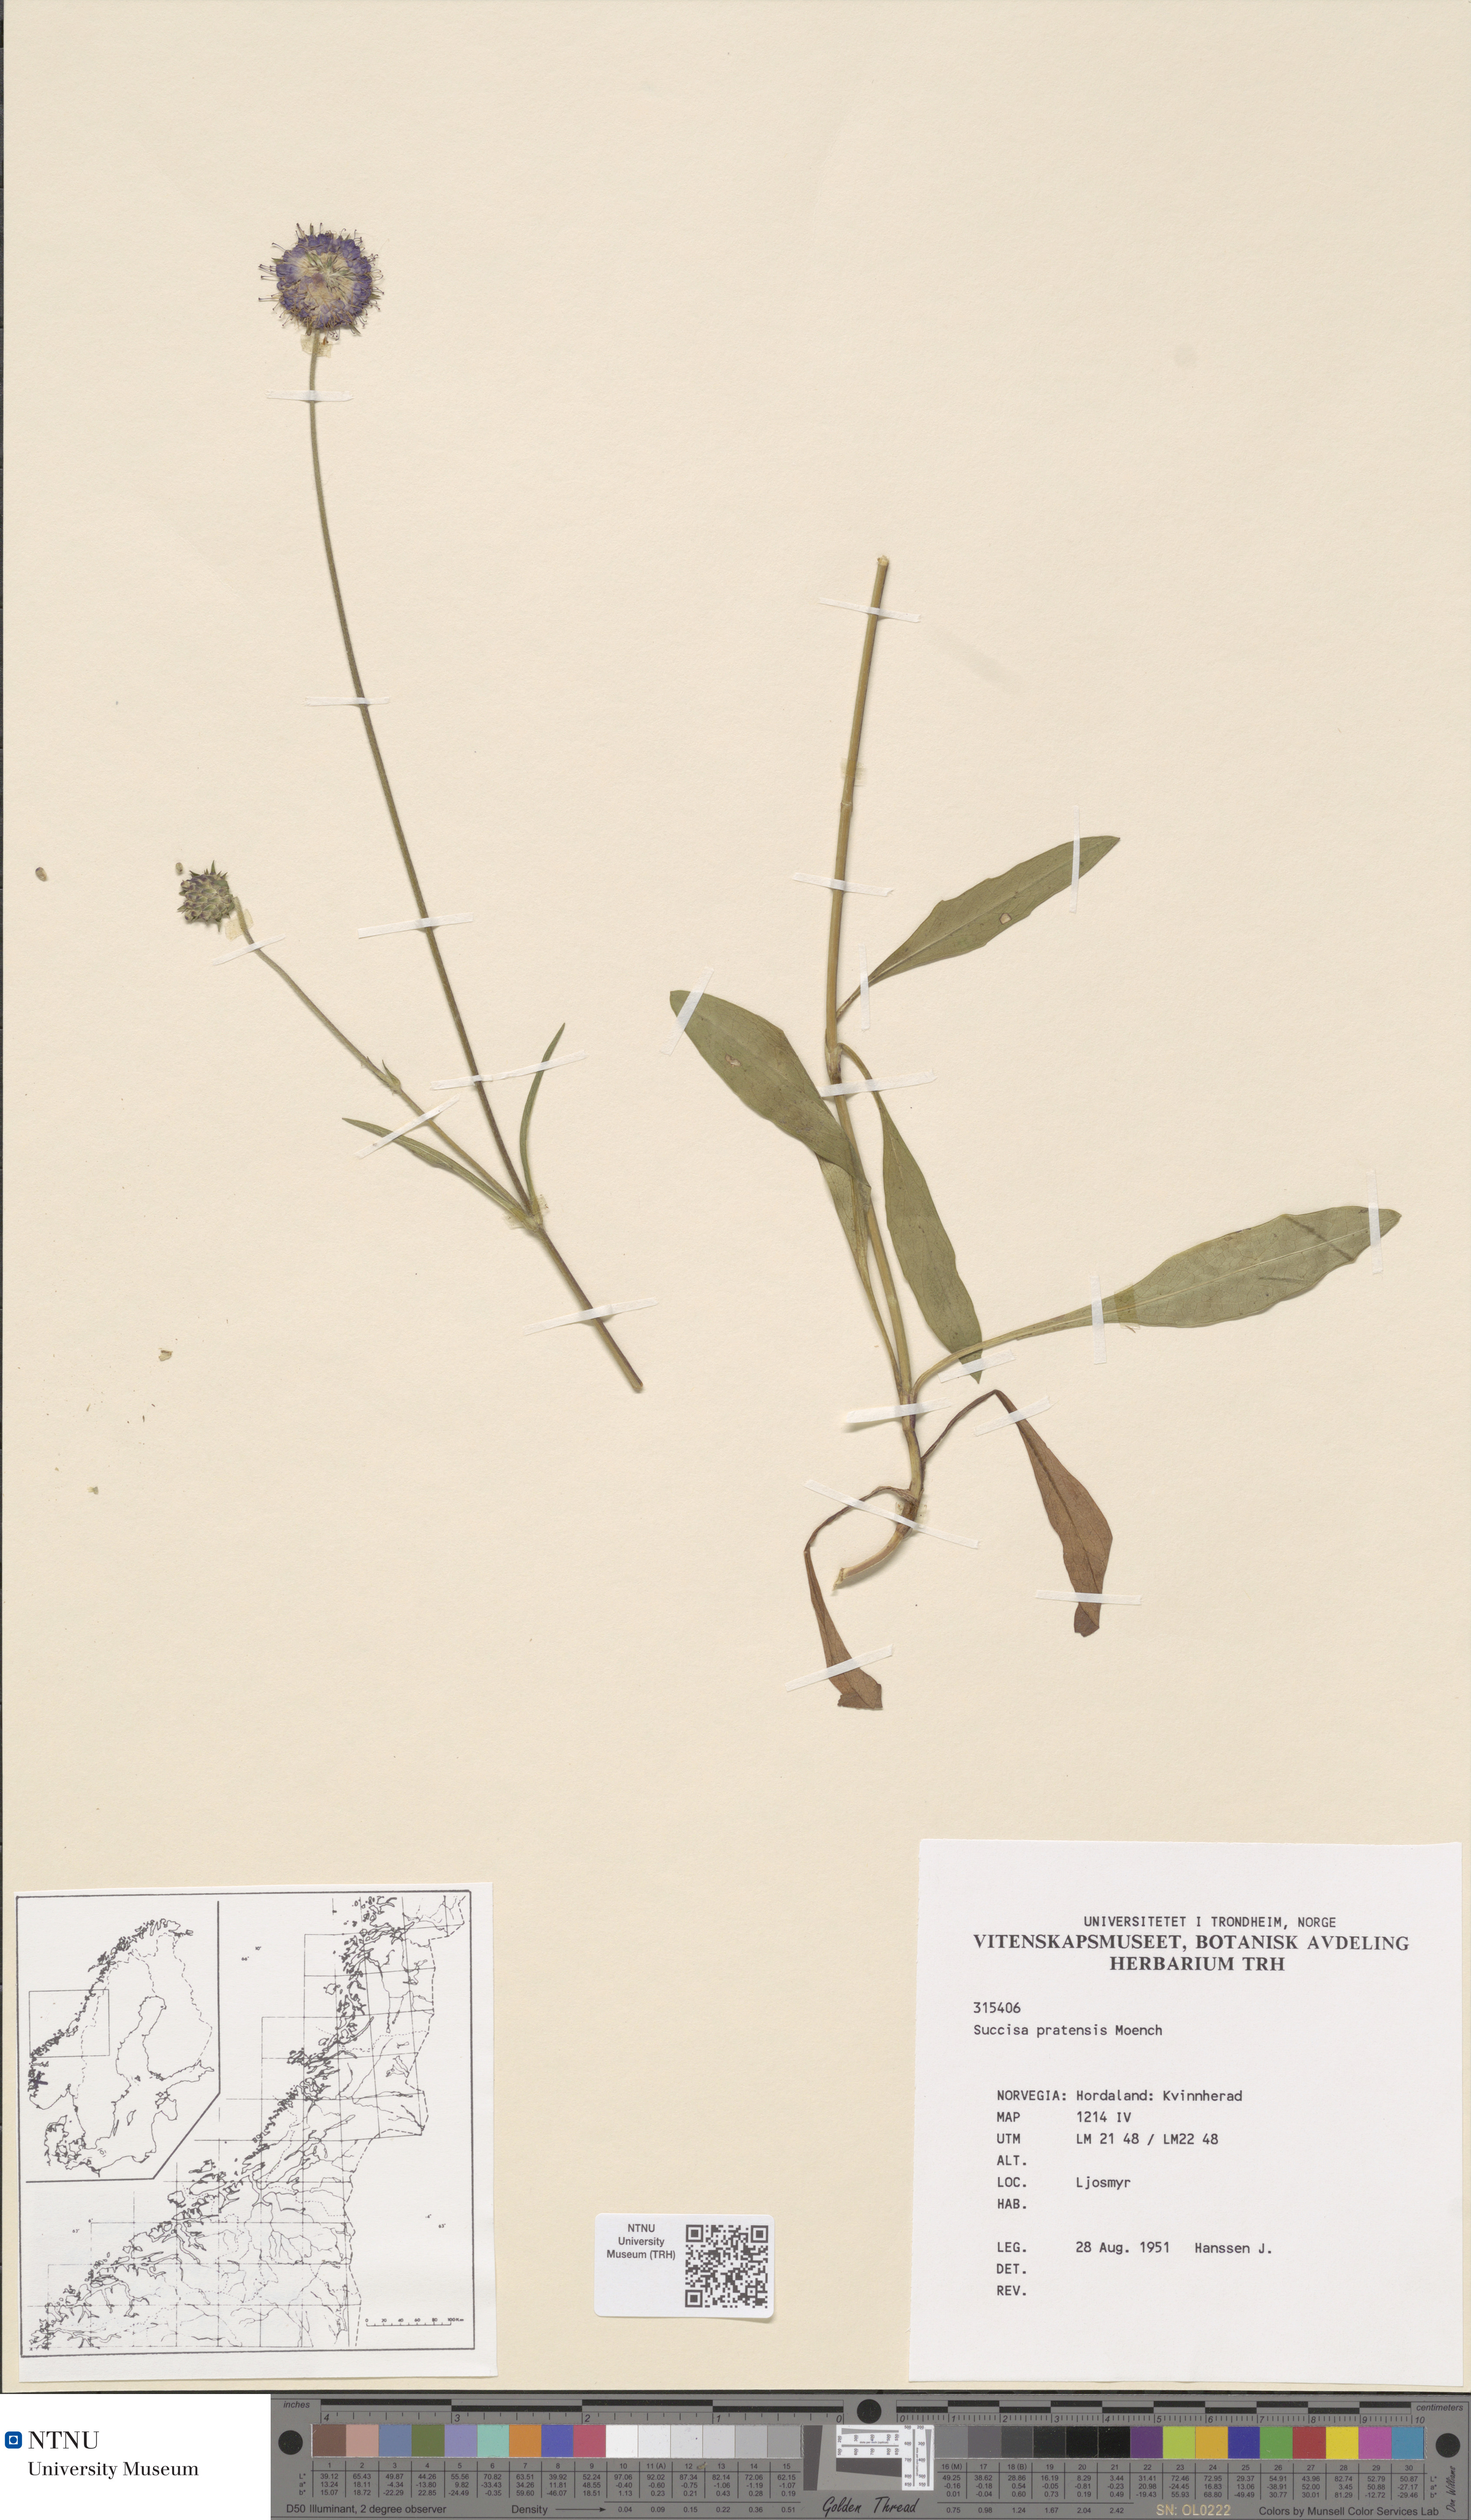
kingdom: Plantae
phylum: Tracheophyta
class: Magnoliopsida
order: Dipsacales
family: Caprifoliaceae
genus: Succisa
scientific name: Succisa pratensis
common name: Devil's-bit
